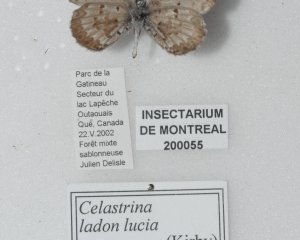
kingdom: Animalia
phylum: Arthropoda
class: Insecta
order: Lepidoptera
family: Lycaenidae
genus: Celastrina
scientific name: Celastrina lucia
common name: Northern Spring Azure
